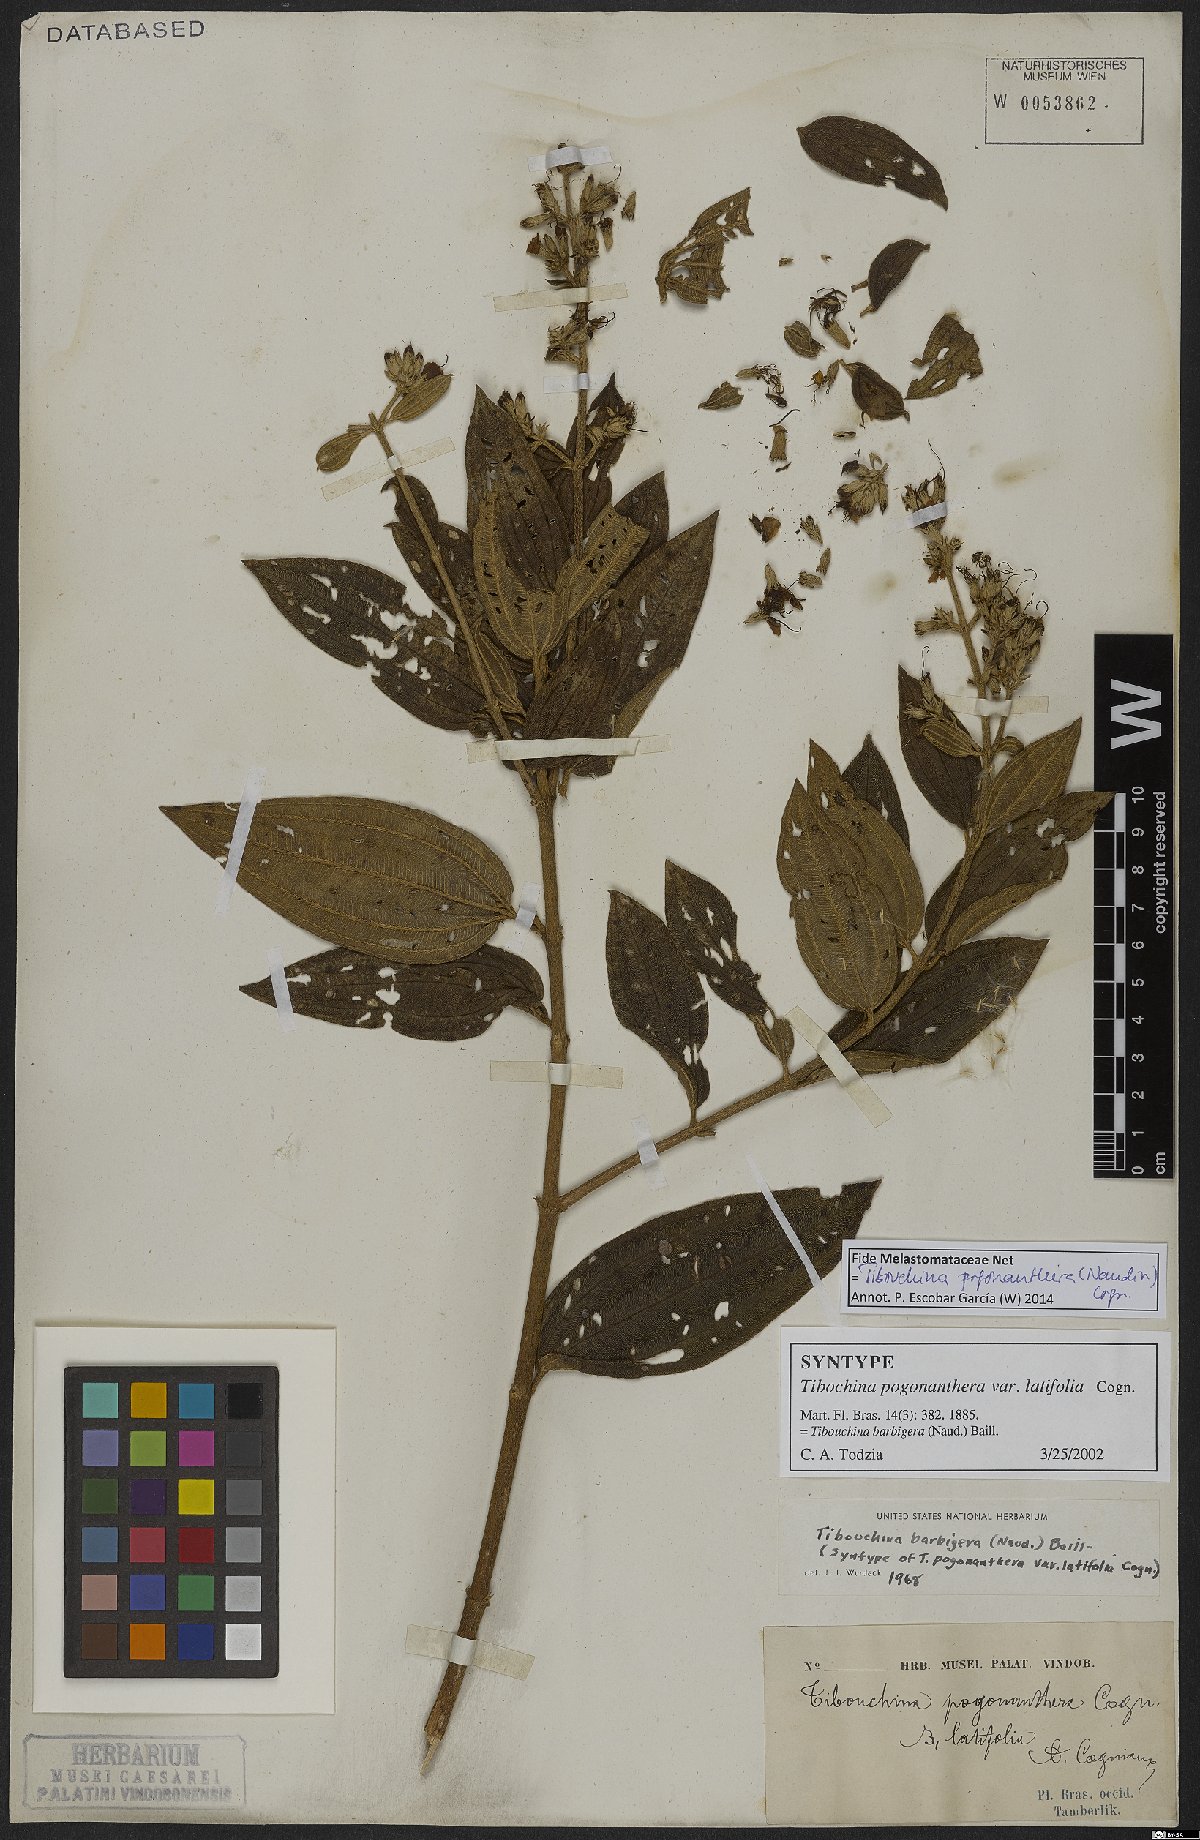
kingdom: Plantae
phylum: Tracheophyta
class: Magnoliopsida
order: Myrtales
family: Melastomataceae
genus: Pleroma
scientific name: Pleroma pogonantherum
